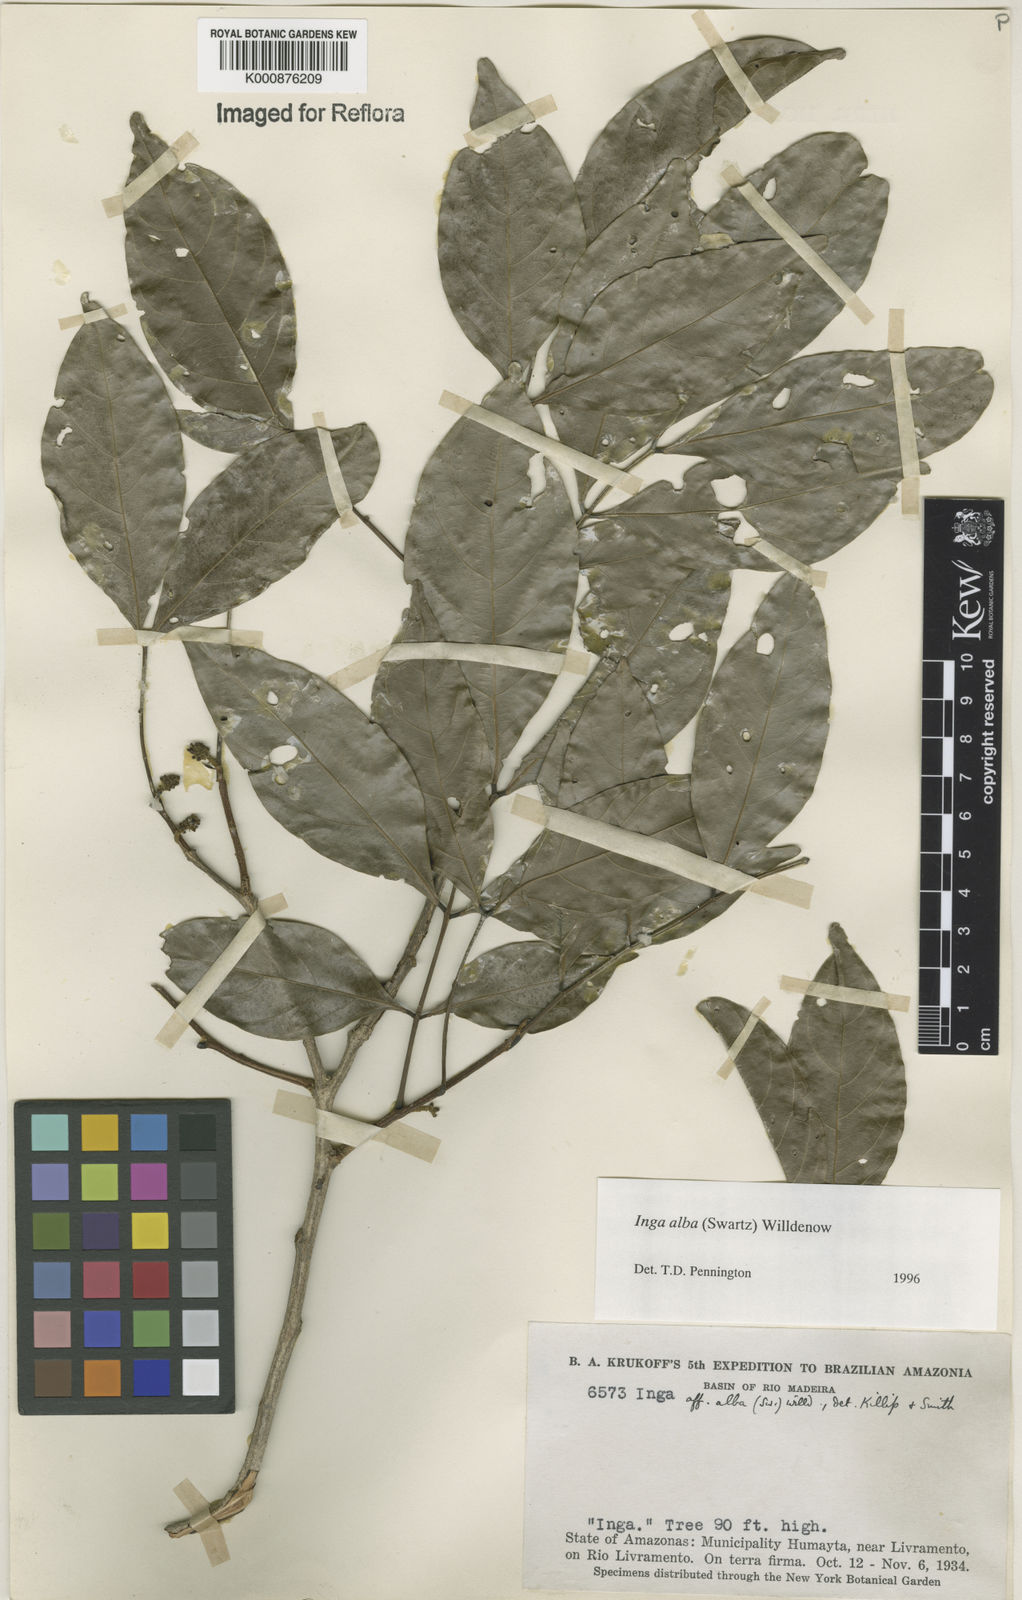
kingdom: Plantae
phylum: Tracheophyta
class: Magnoliopsida
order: Fabales
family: Fabaceae
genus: Inga
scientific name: Inga alba
